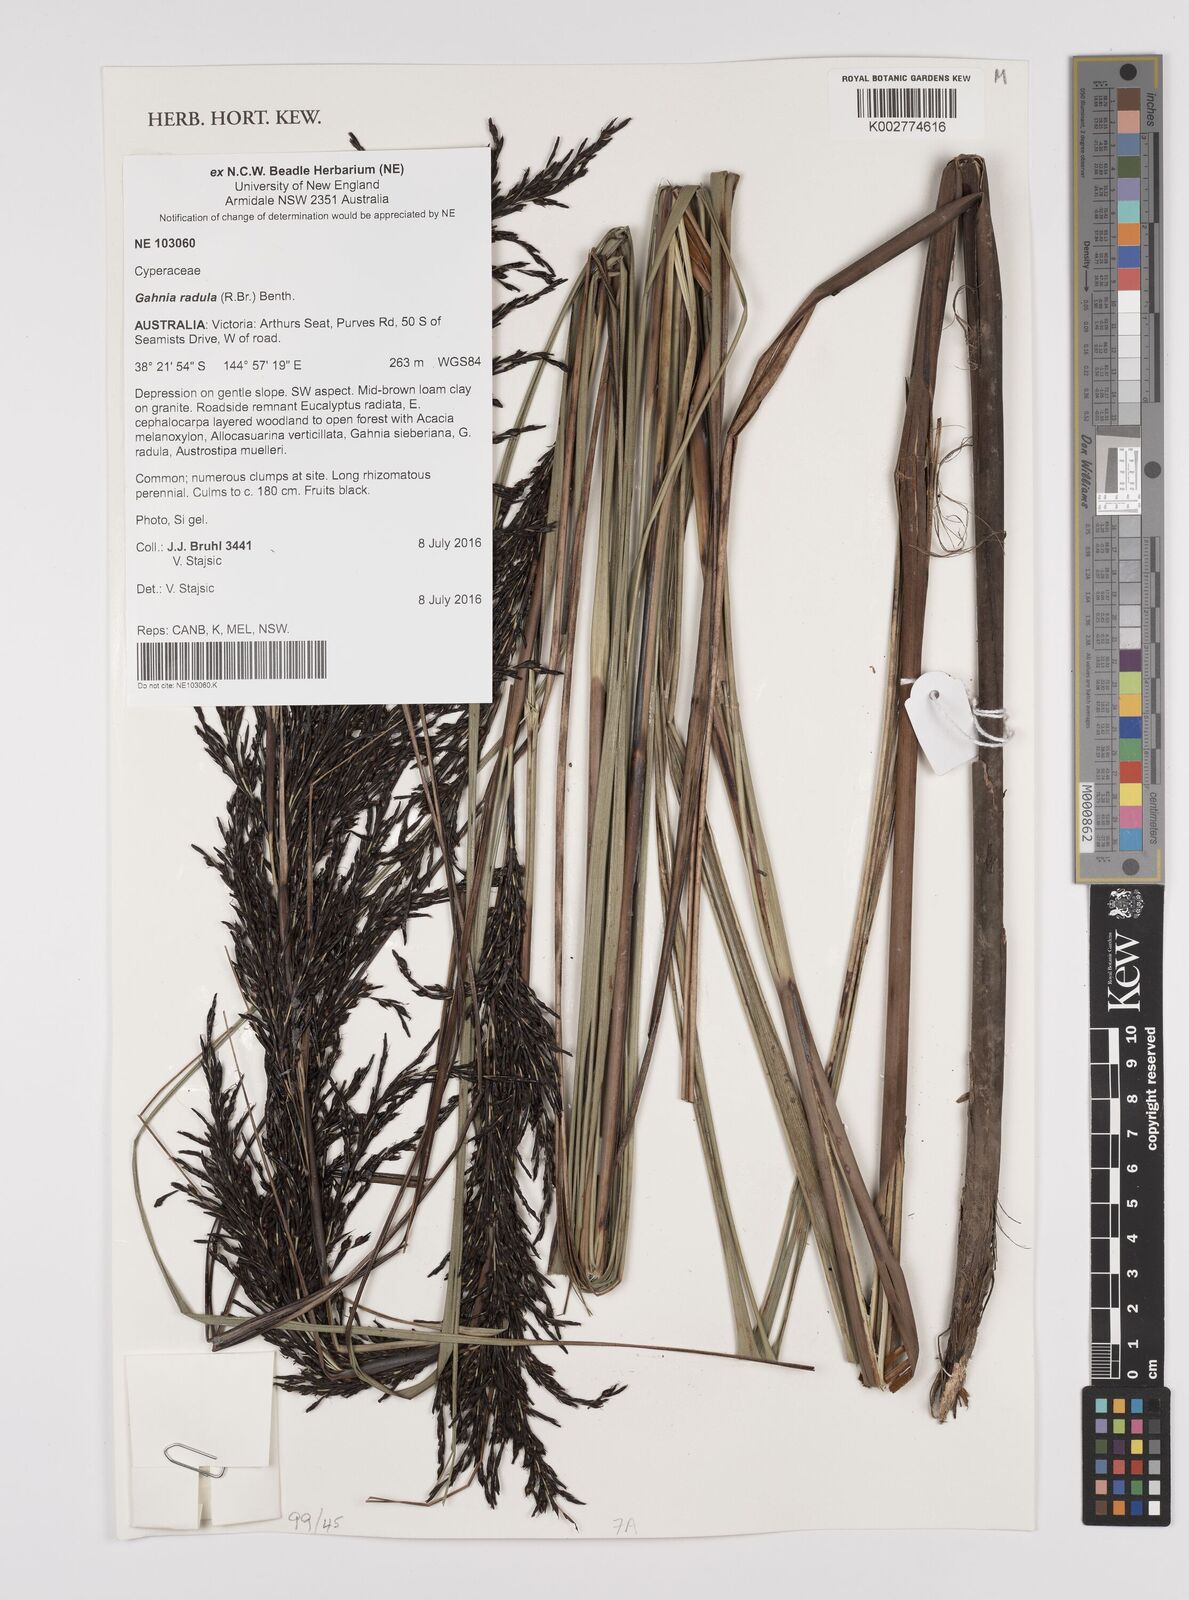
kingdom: Plantae
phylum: Tracheophyta
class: Liliopsida
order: Poales
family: Cyperaceae
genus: Gahnia
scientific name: Gahnia radula
